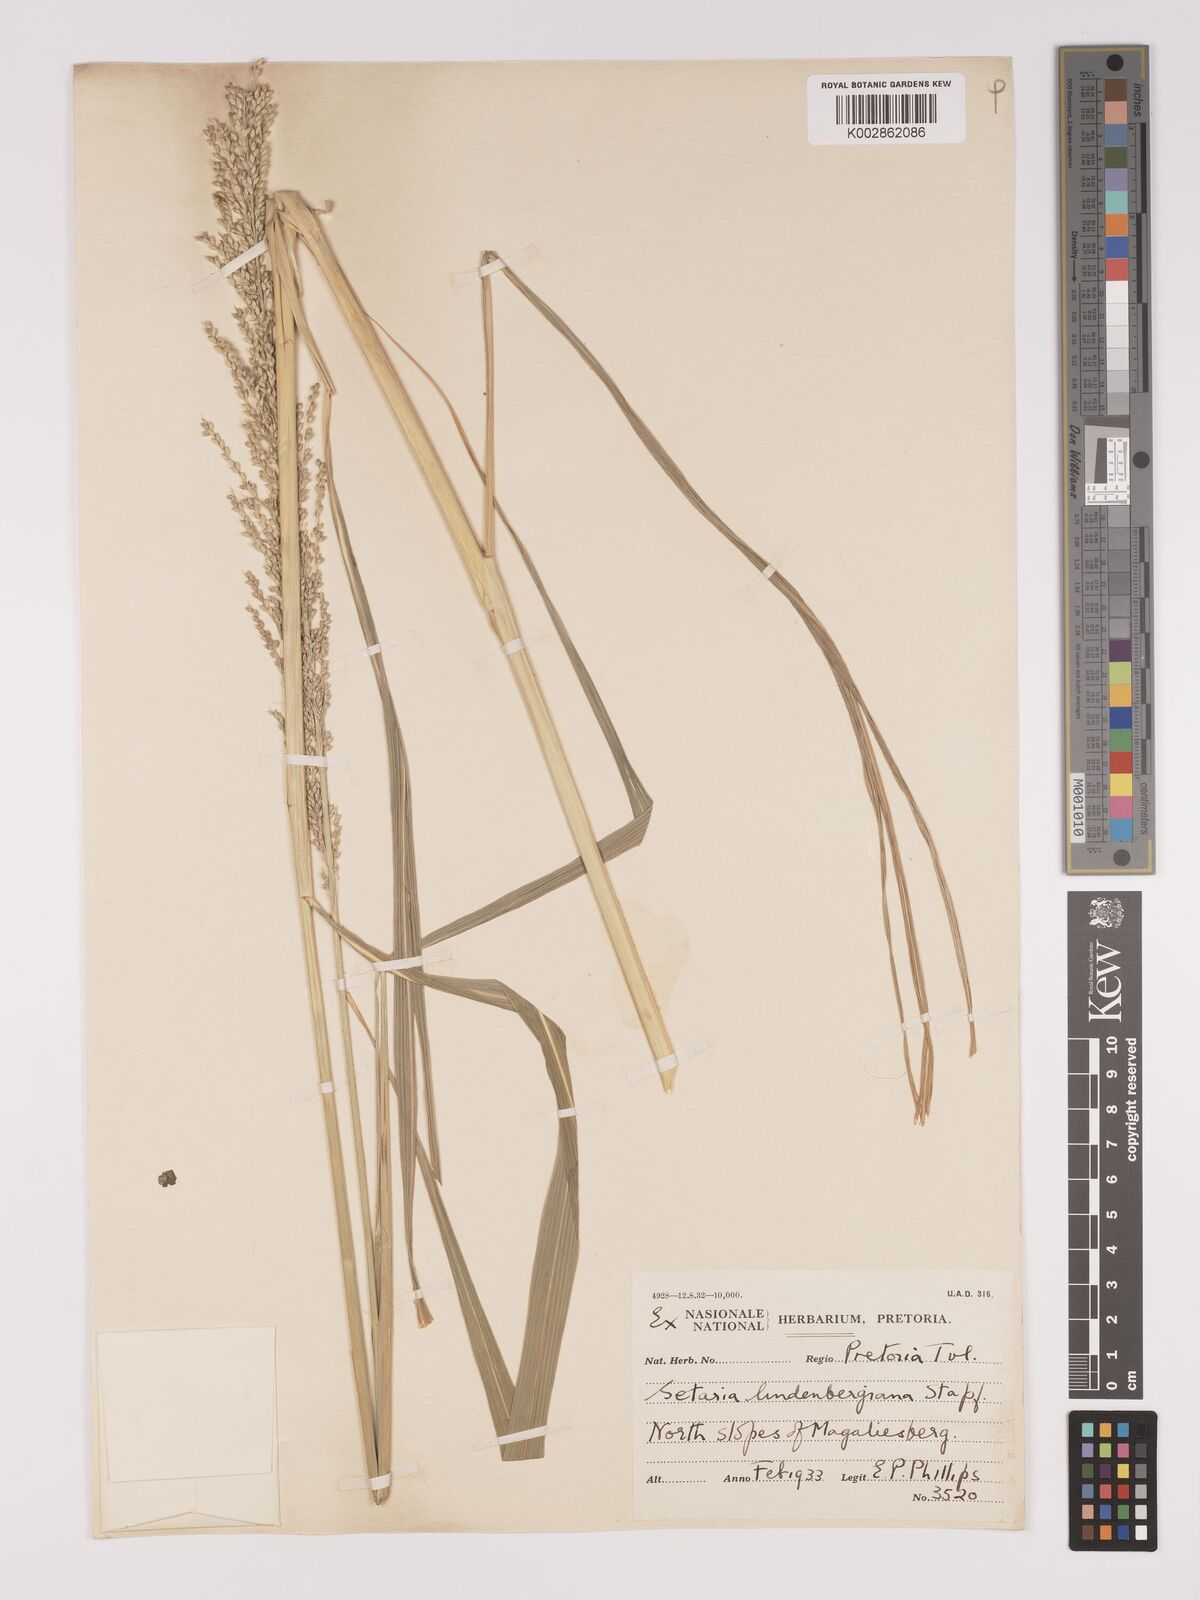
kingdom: Plantae
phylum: Tracheophyta
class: Liliopsida
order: Poales
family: Poaceae
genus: Setaria
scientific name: Setaria lindenbergiana
